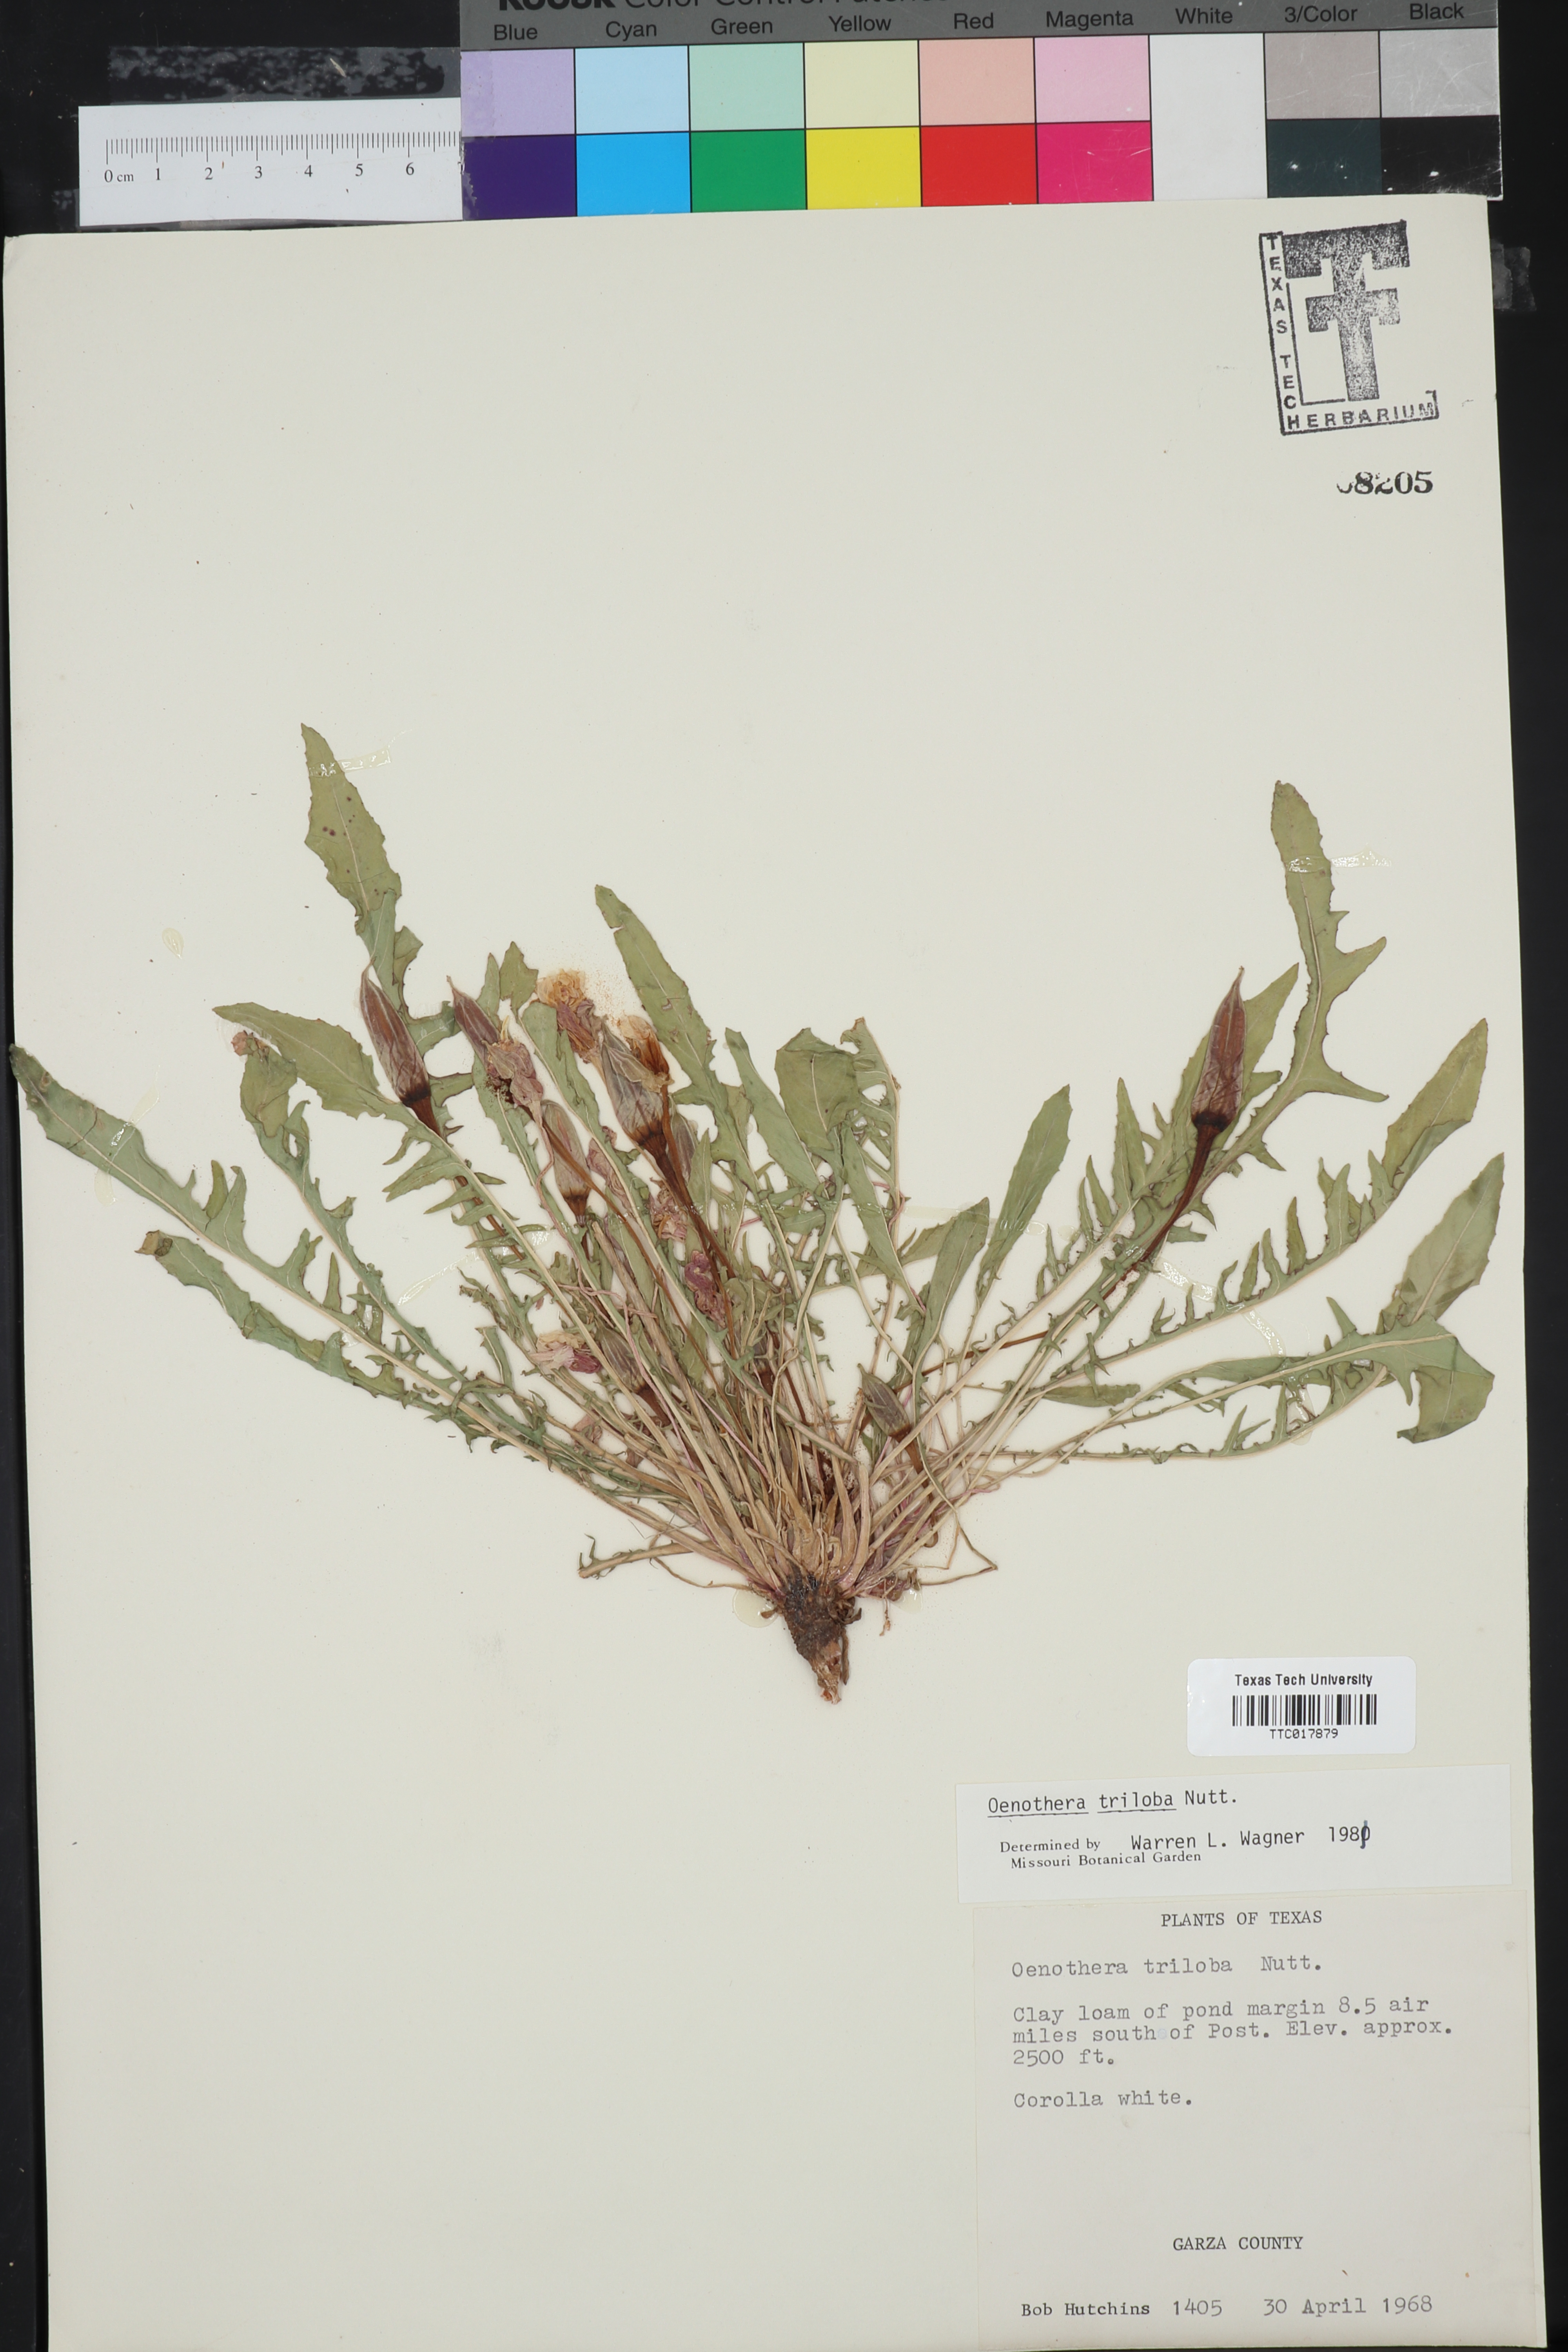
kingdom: Plantae
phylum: Tracheophyta
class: Magnoliopsida
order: Myrtales
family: Onagraceae
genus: Oenothera
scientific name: Oenothera triloba
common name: Sessile evening-primrose
